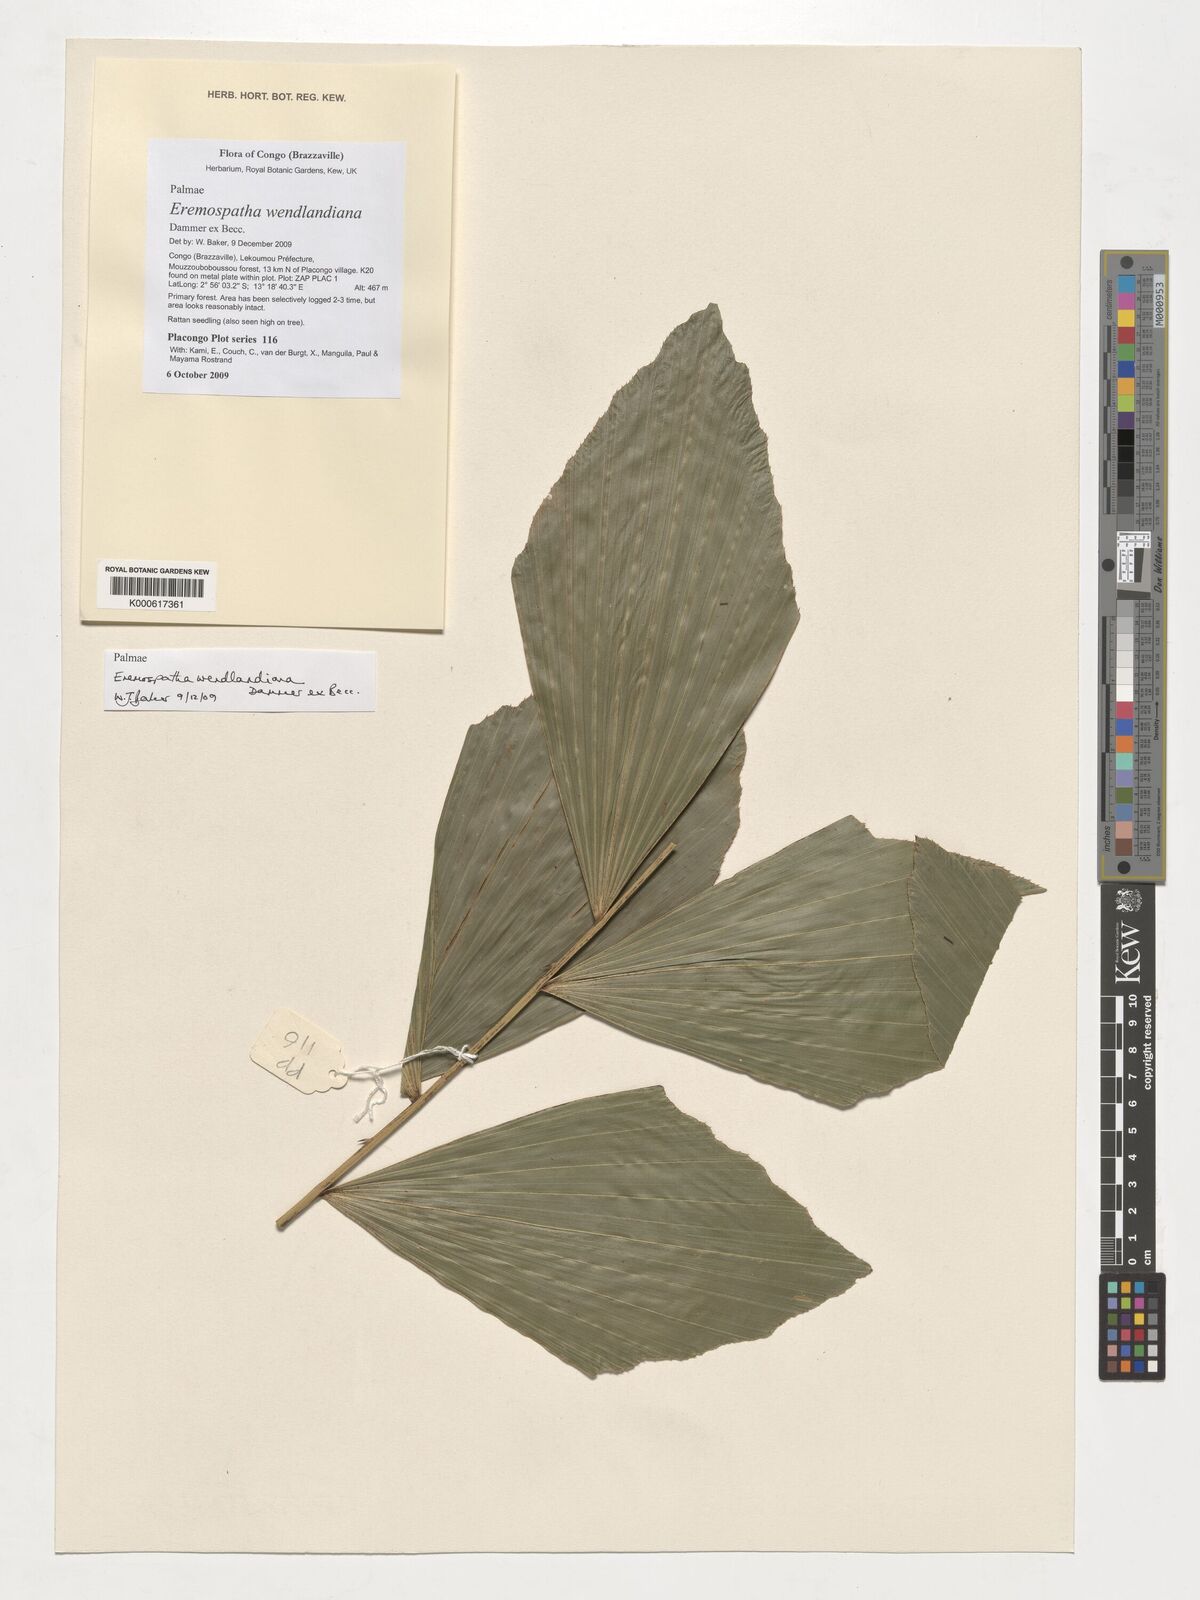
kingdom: Plantae
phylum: Tracheophyta
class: Liliopsida
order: Arecales
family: Arecaceae
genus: Eremospatha
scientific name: Eremospatha wendlandiana
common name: Rattan
